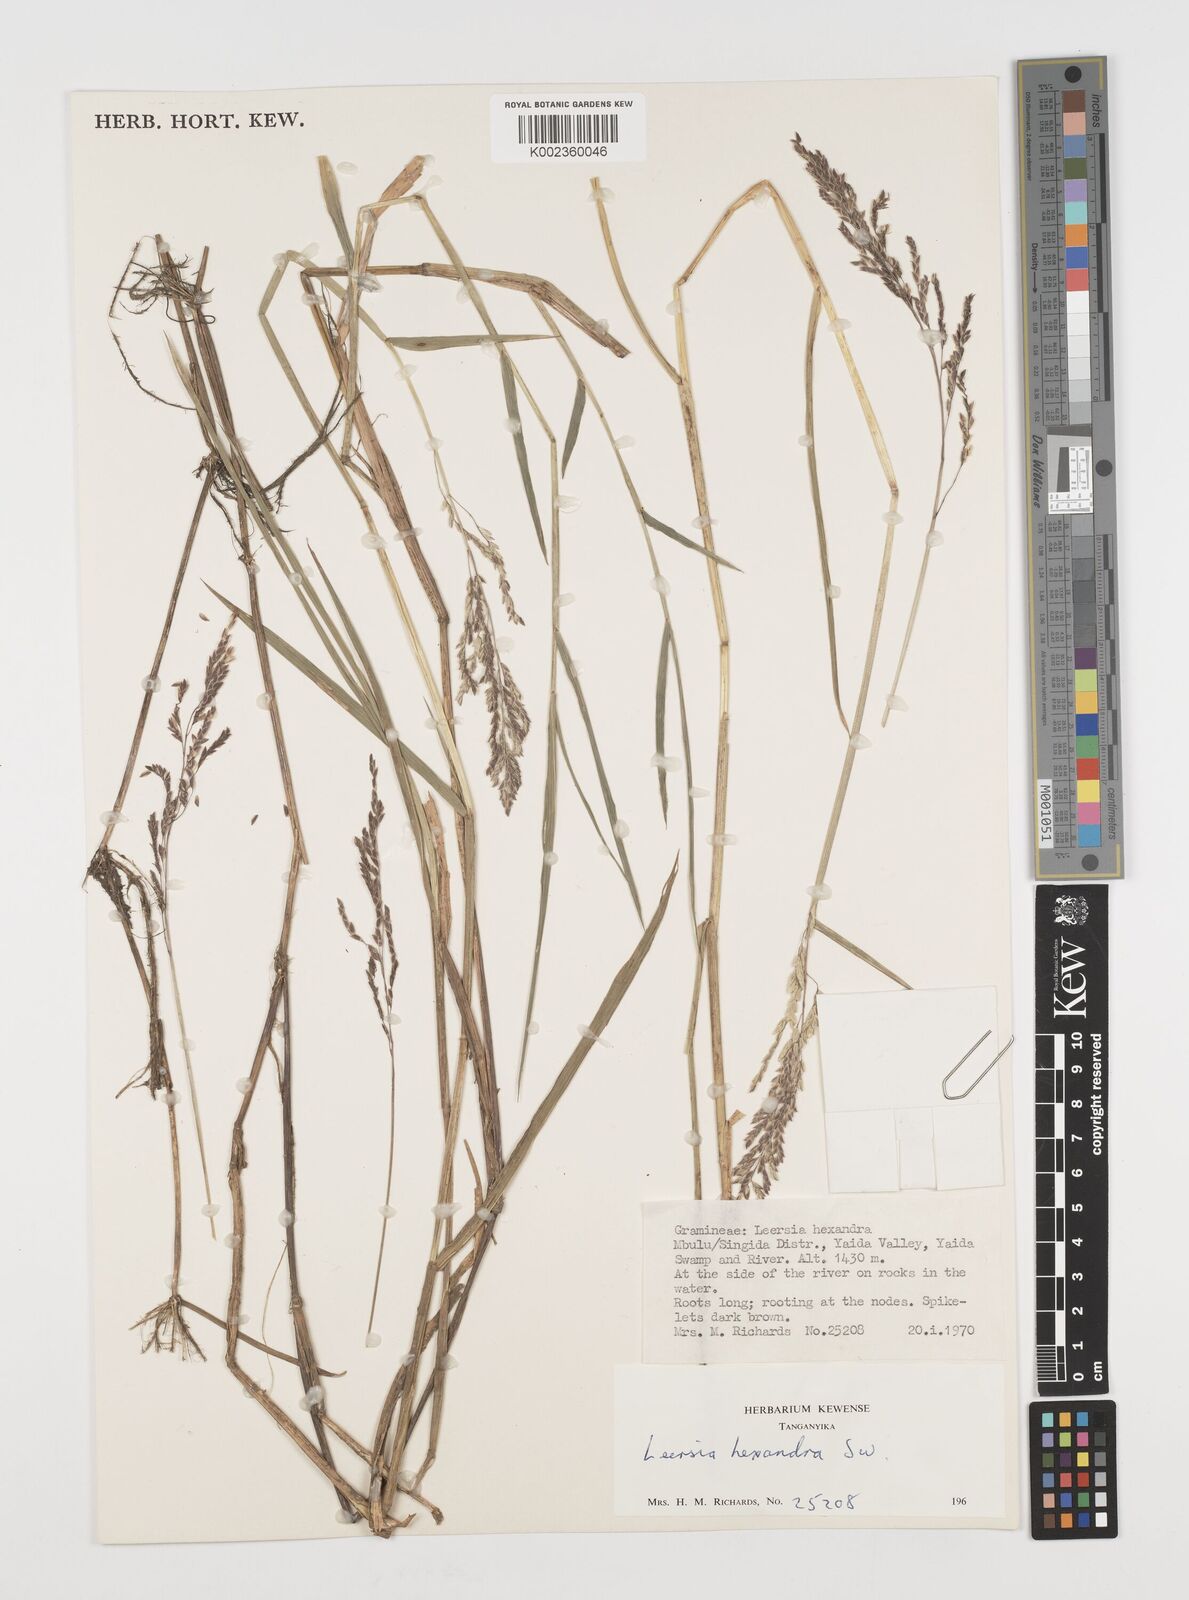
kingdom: Plantae
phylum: Tracheophyta
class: Liliopsida
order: Poales
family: Poaceae
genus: Leersia
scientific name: Leersia hexandra
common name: Southern cut grass
